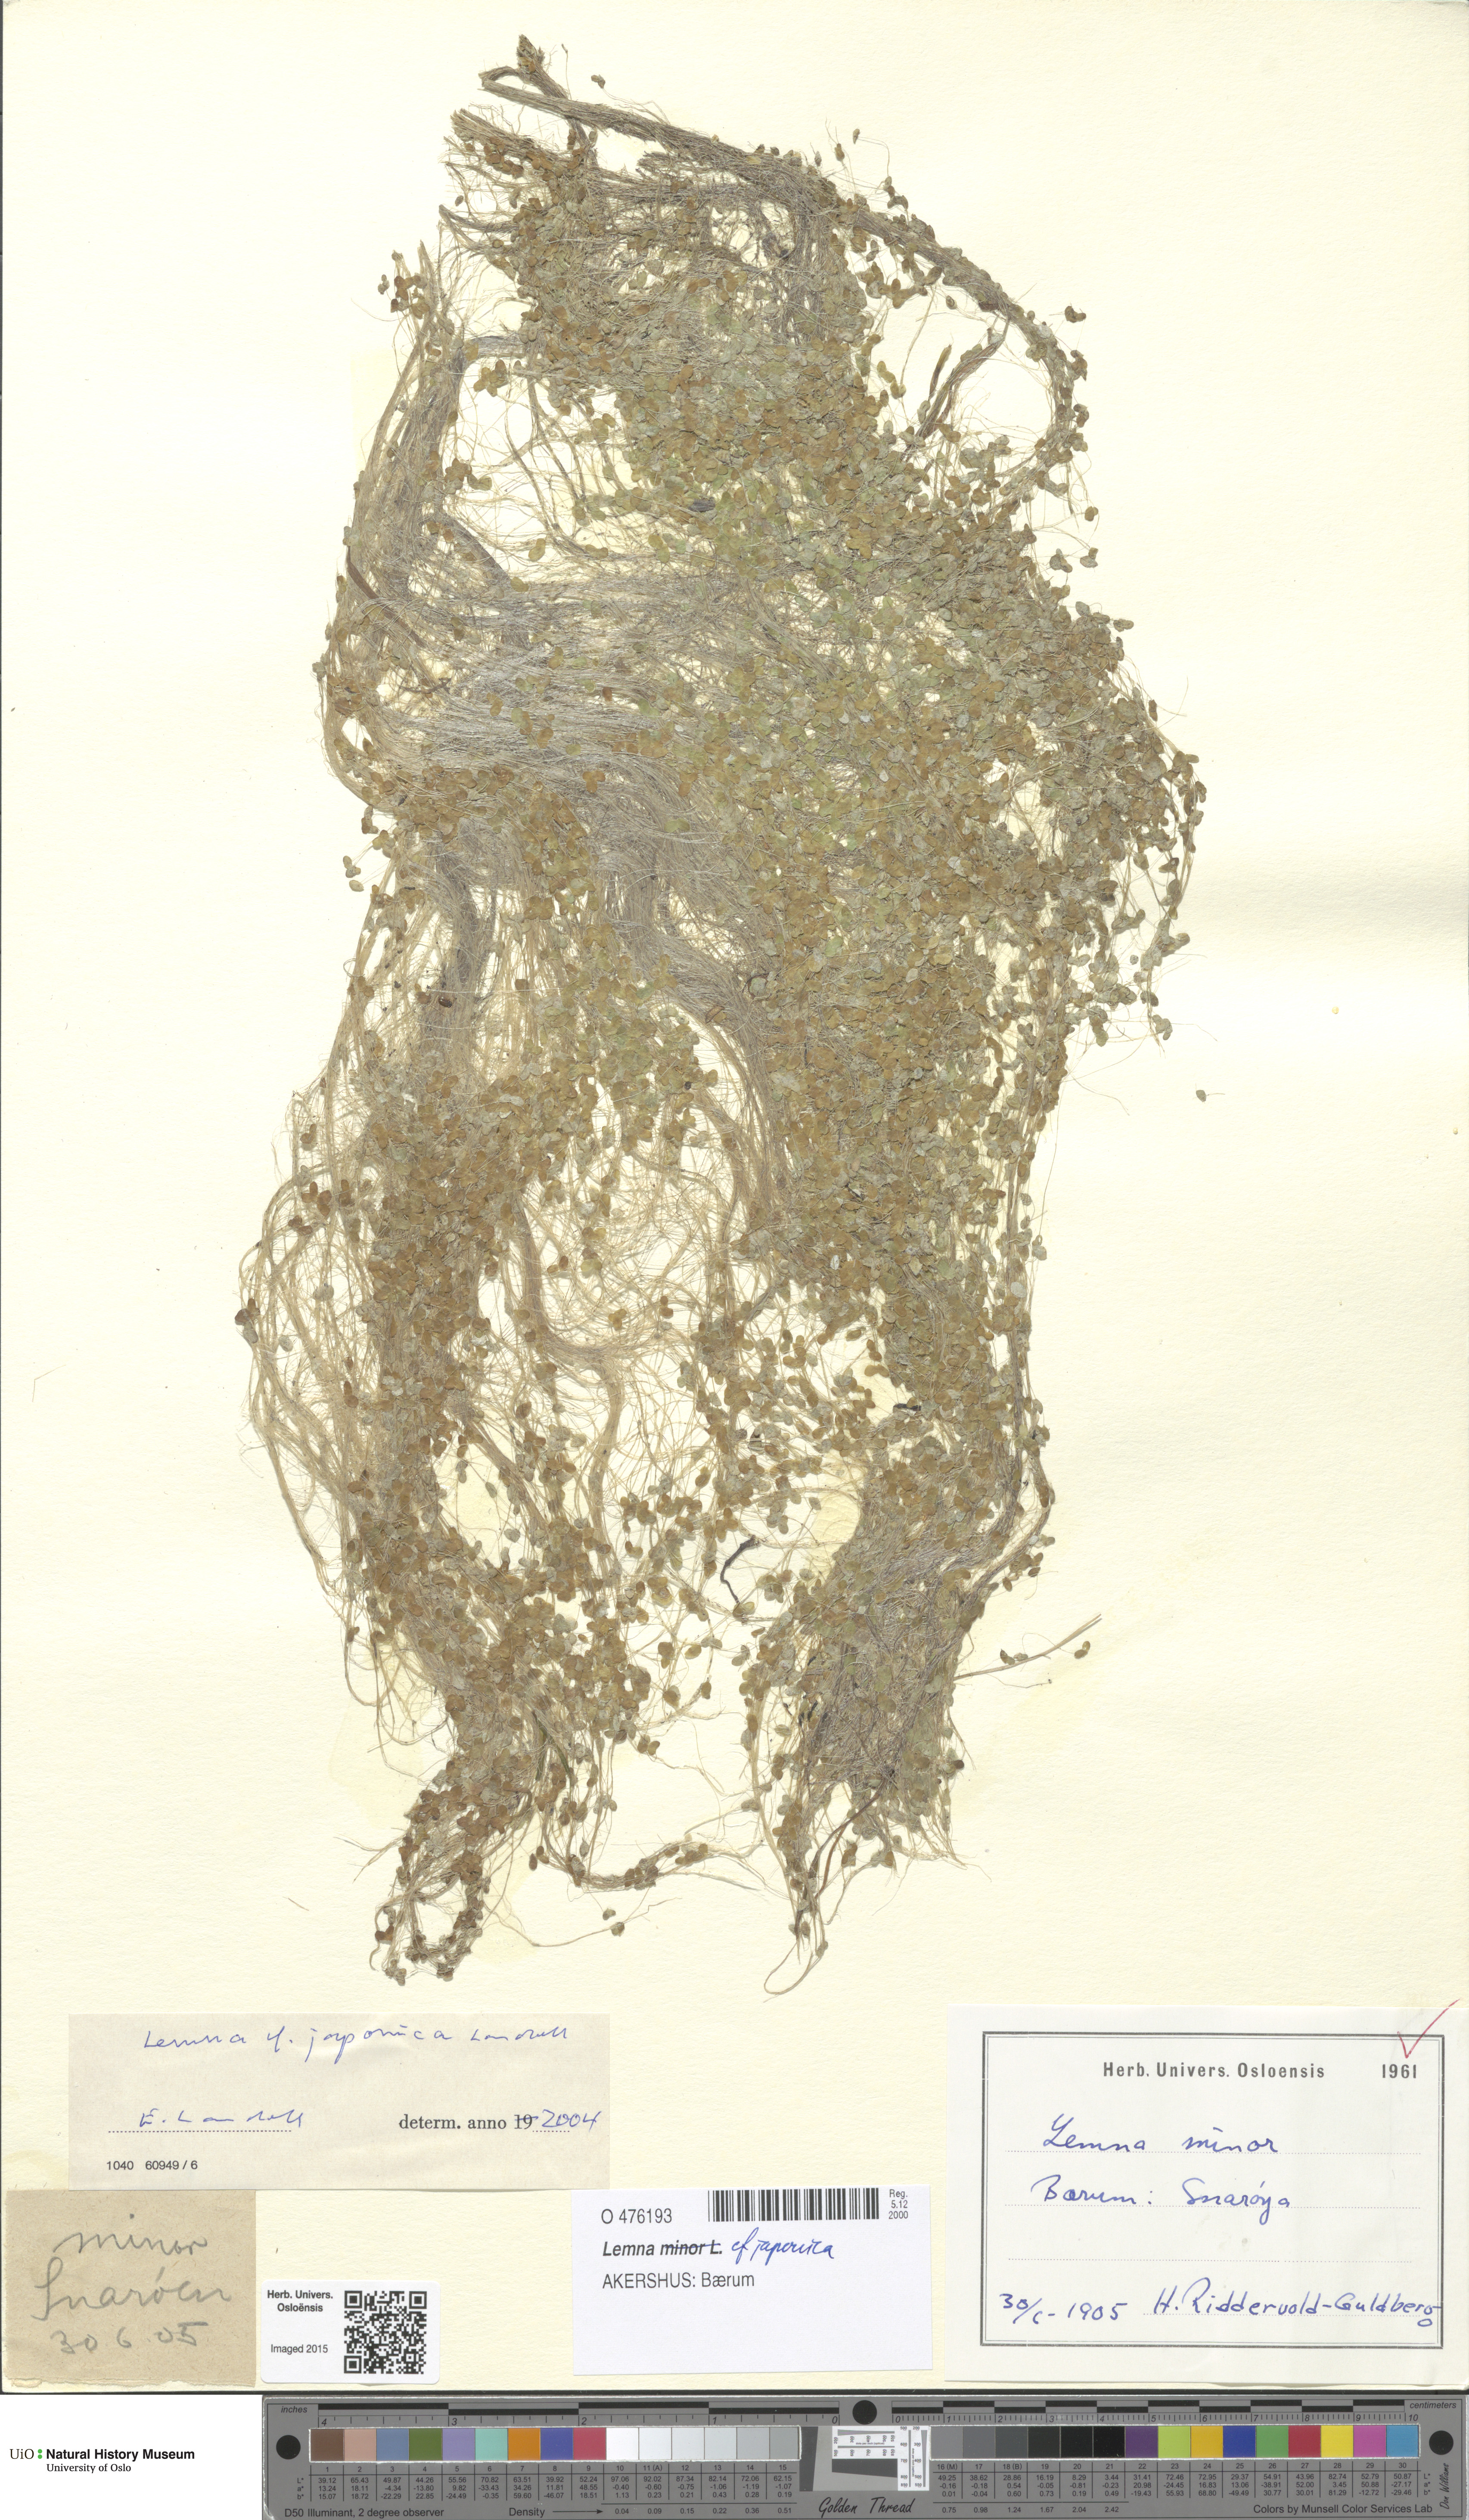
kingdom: Plantae
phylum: Tracheophyta
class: Liliopsida
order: Alismatales
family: Araceae
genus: Lemna
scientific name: Lemna japonica
